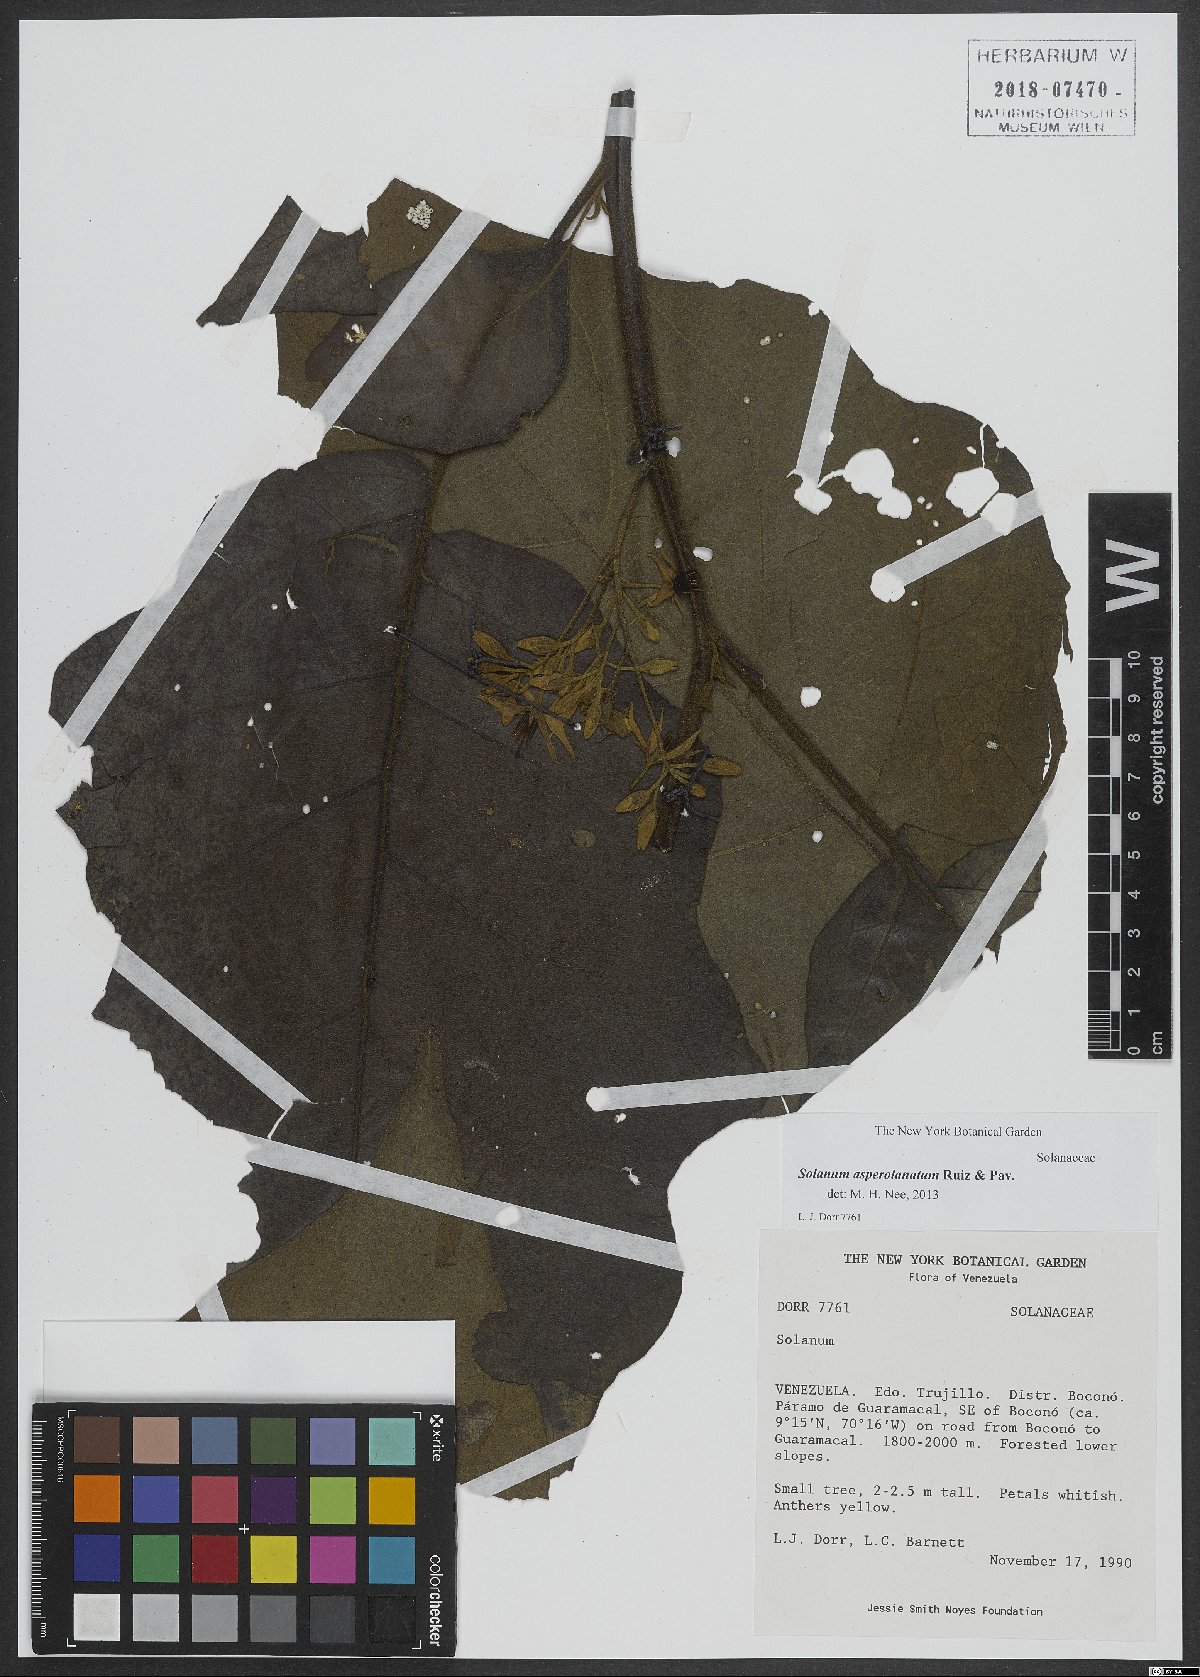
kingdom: Plantae
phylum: Tracheophyta
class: Magnoliopsida
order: Solanales
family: Solanaceae
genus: Solanum
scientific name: Solanum asperolanatum
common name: Devil's-fig
